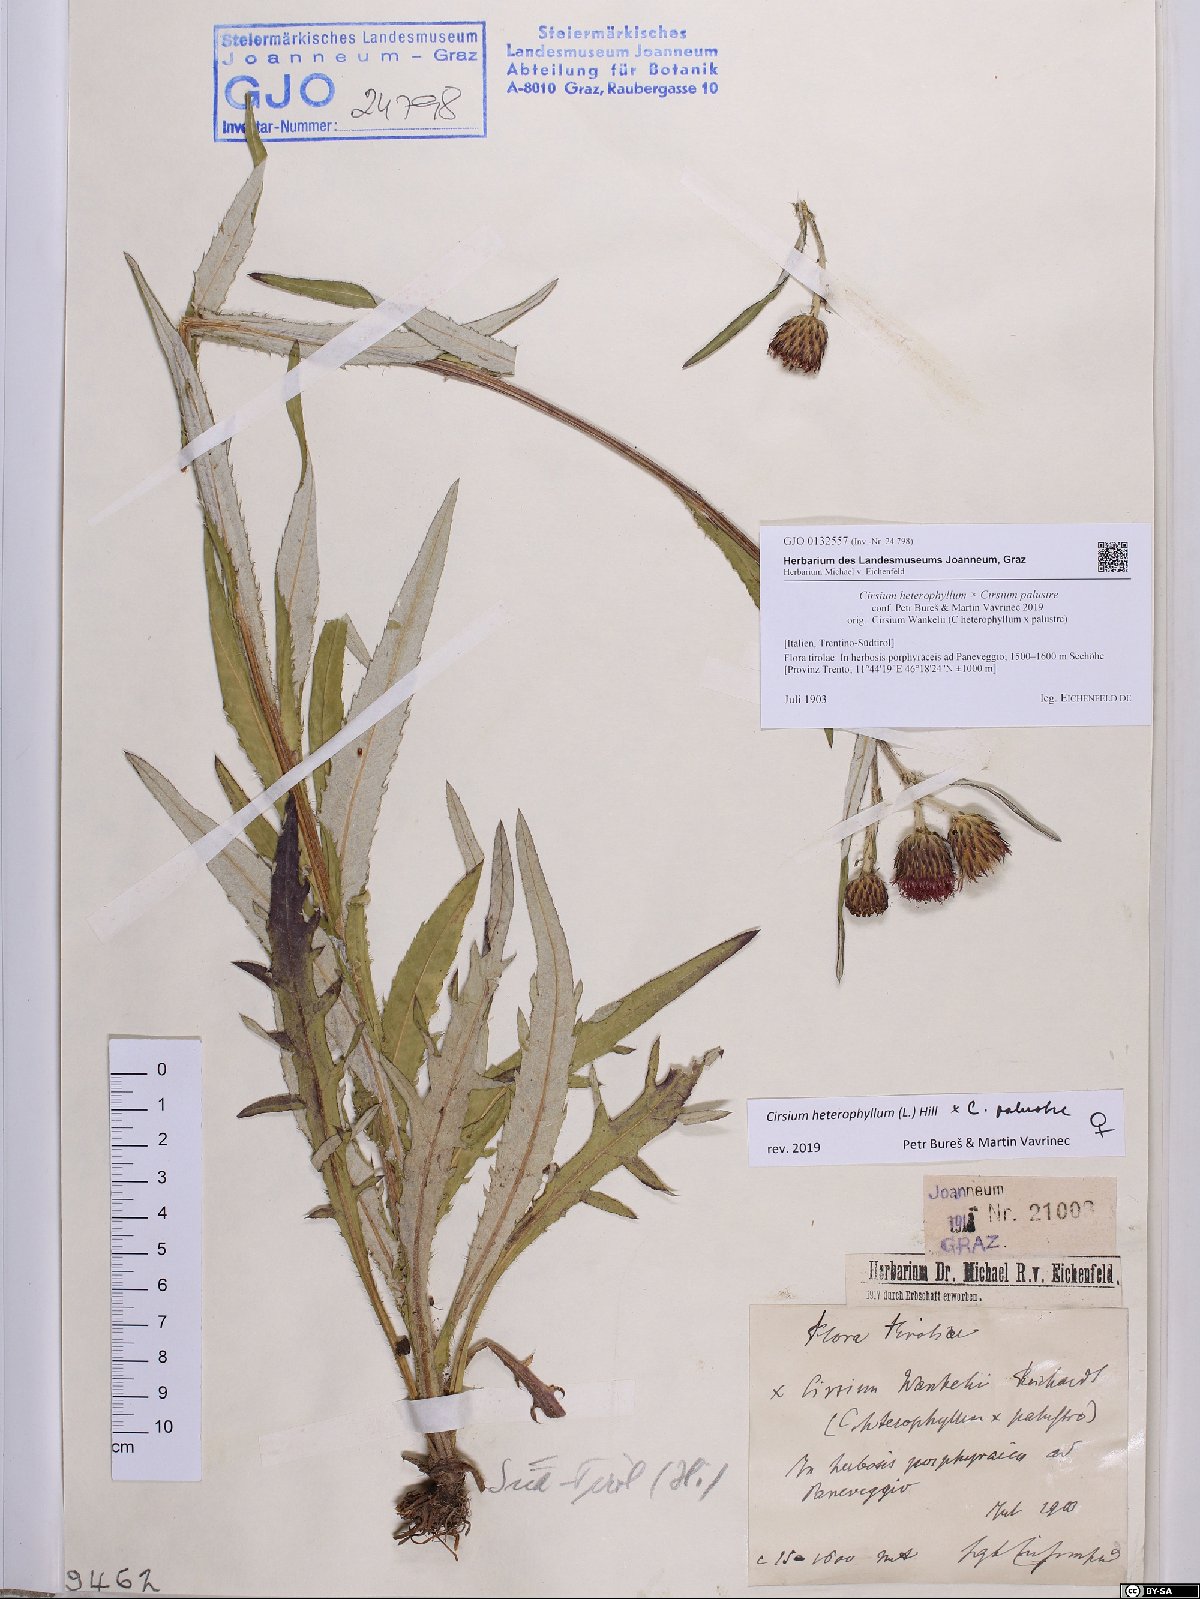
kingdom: Plantae
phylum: Tracheophyta
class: Magnoliopsida
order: Asterales
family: Asteraceae
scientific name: Asteraceae
